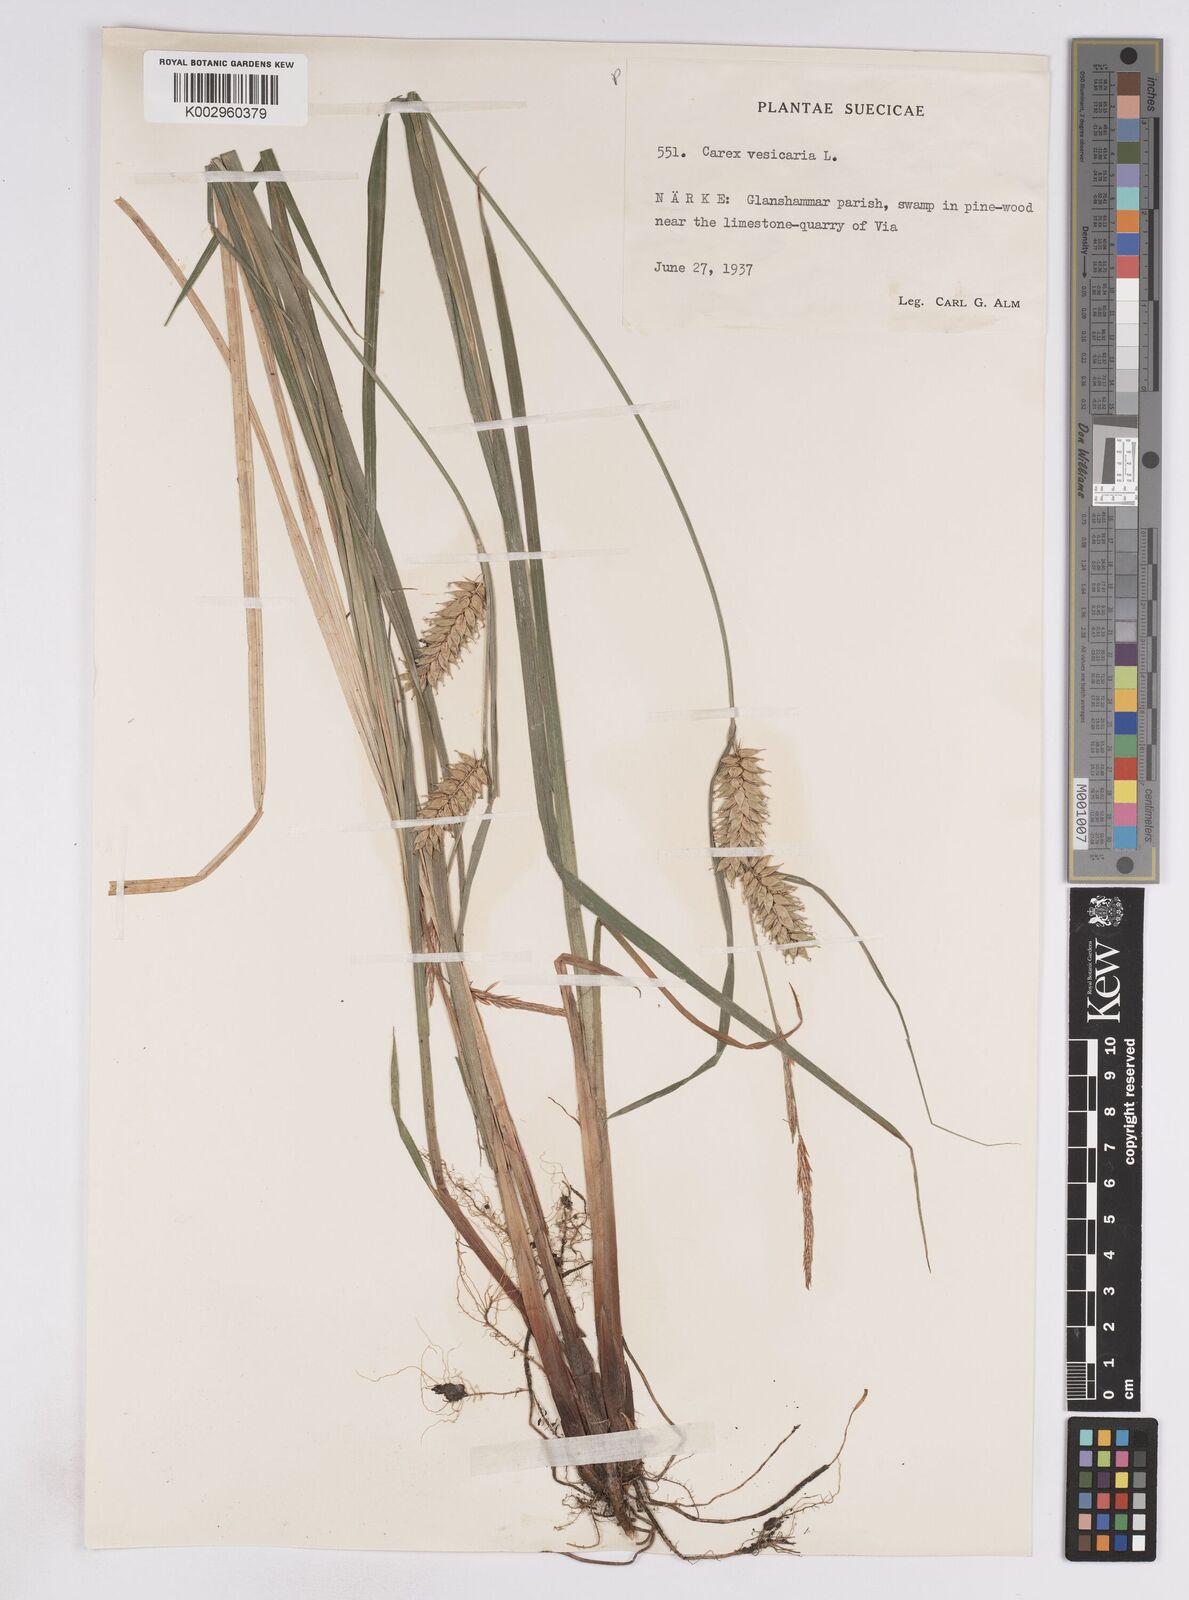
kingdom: Plantae
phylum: Tracheophyta
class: Liliopsida
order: Poales
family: Cyperaceae
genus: Carex
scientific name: Carex vesicaria
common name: Bladder-sedge
